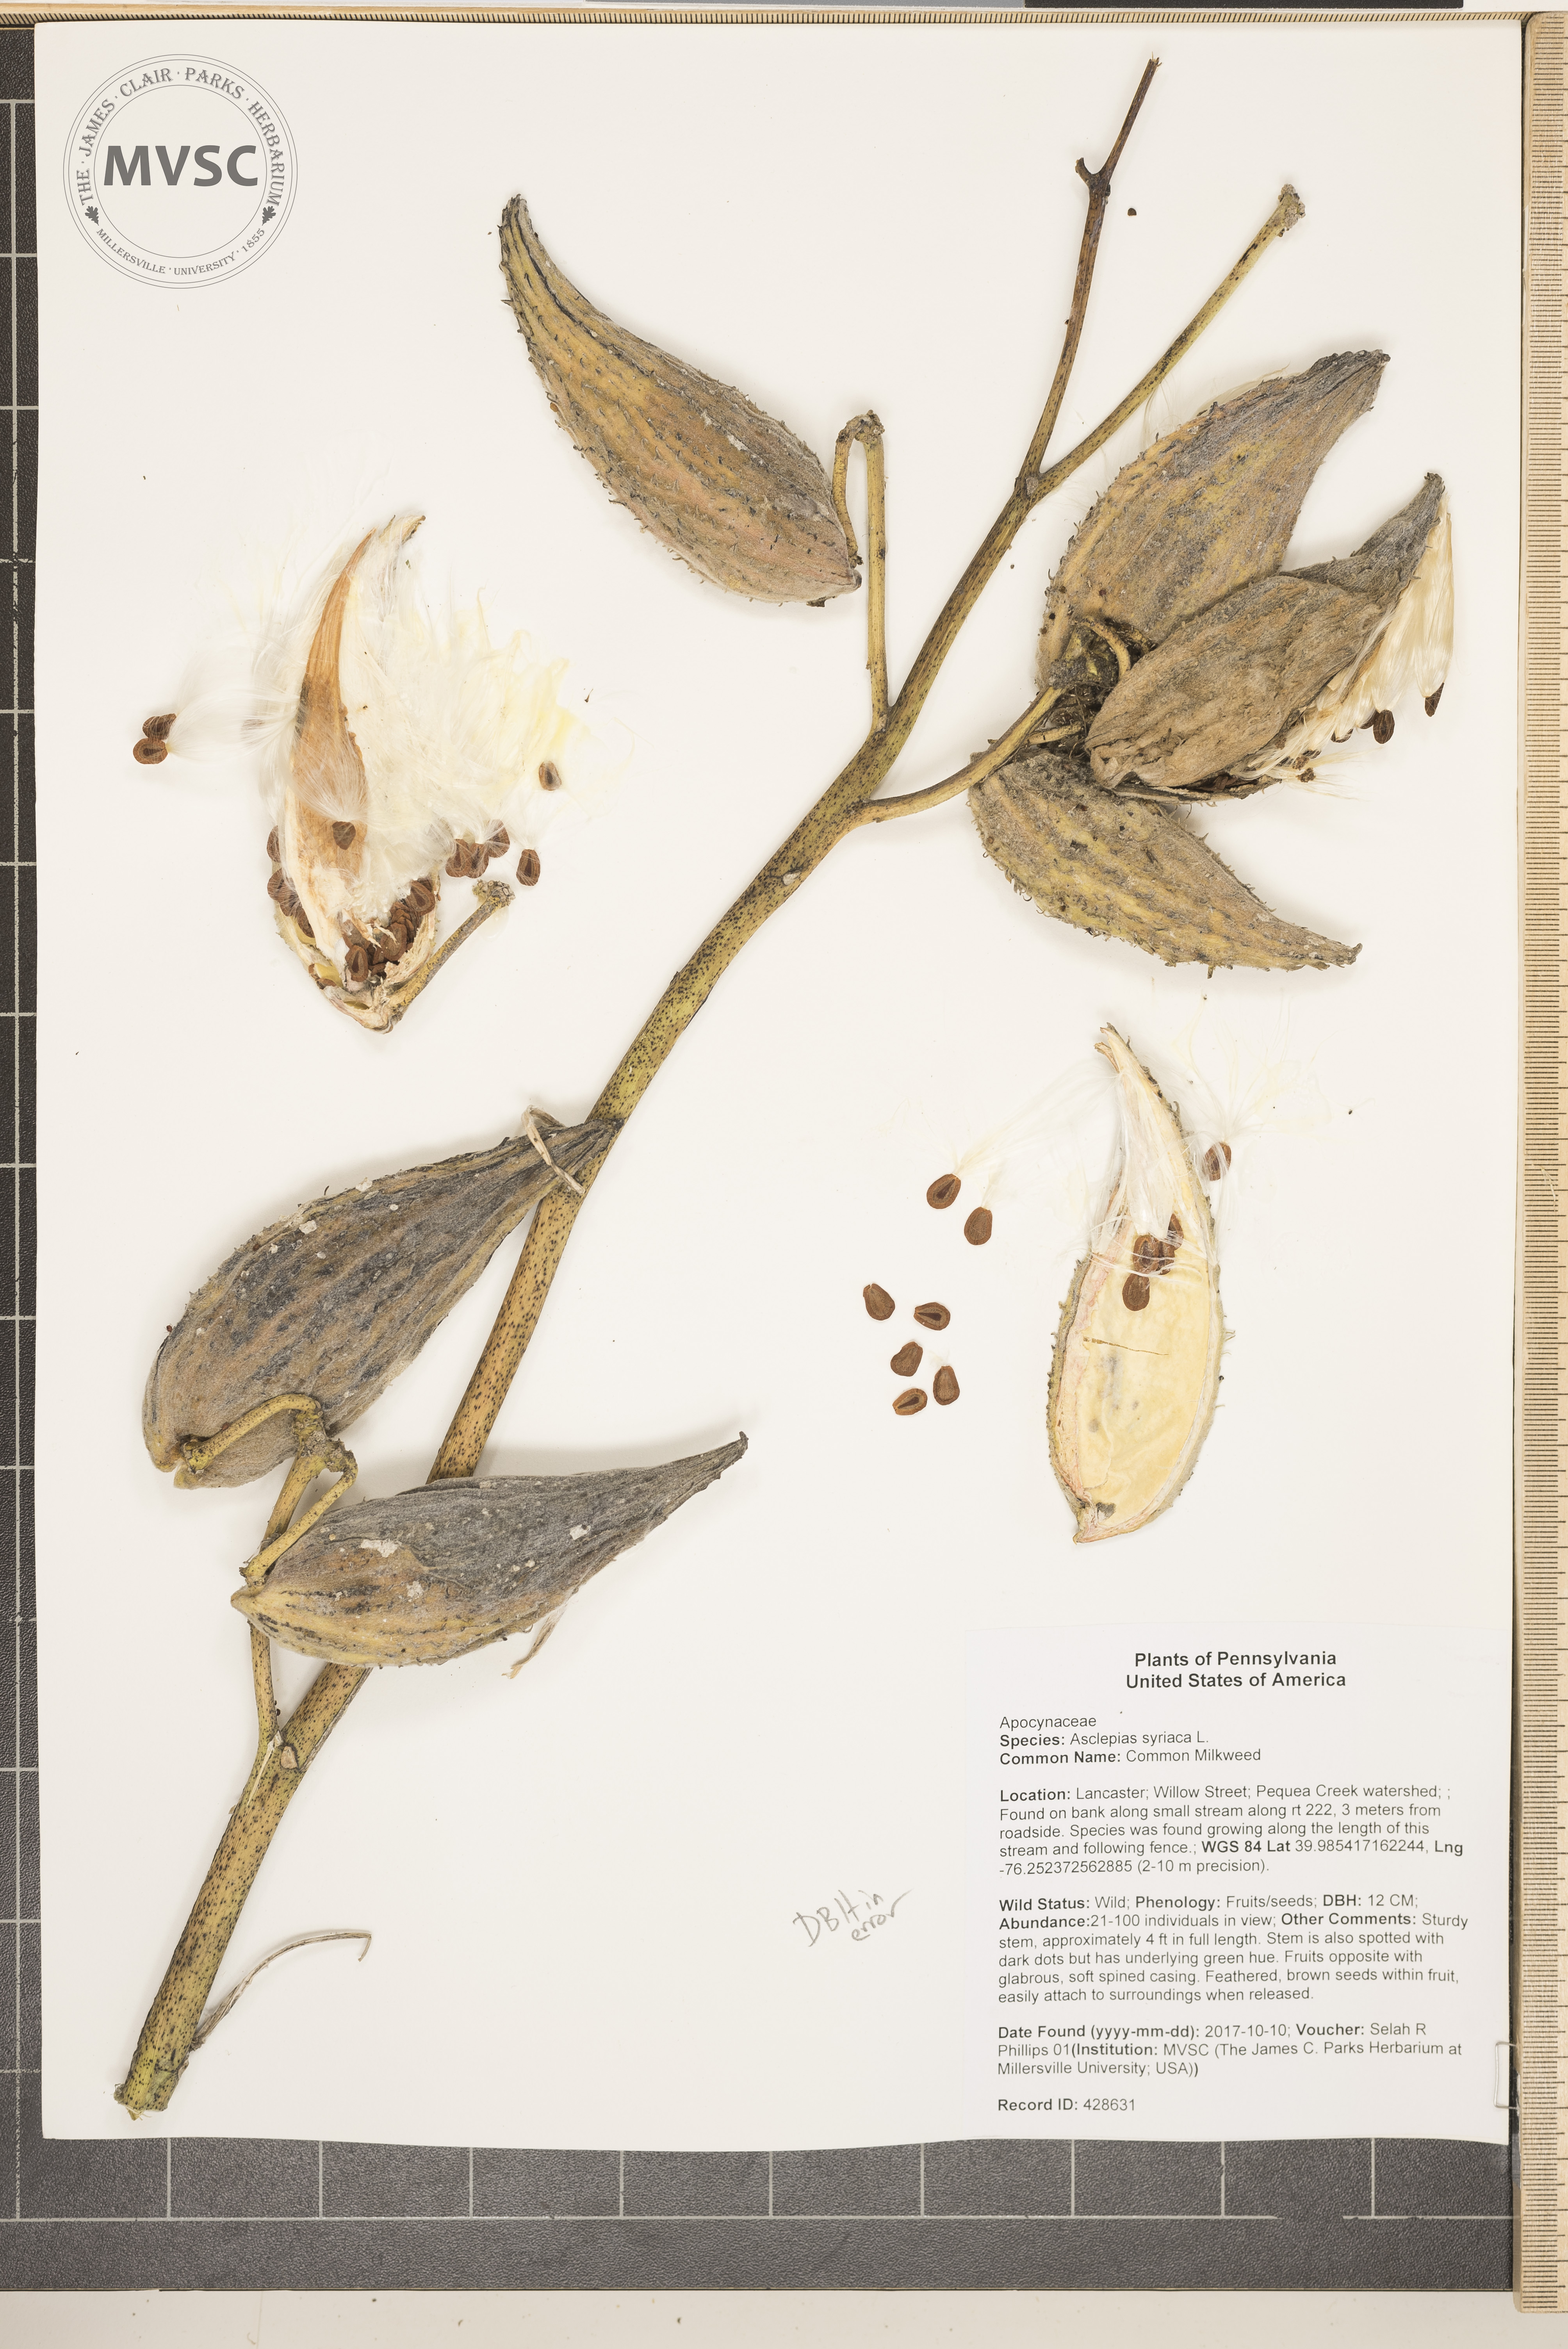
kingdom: Plantae
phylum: Tracheophyta
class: Magnoliopsida
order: Gentianales
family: Apocynaceae
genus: Asclepias
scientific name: Asclepias syriaca
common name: Common Milkweed
